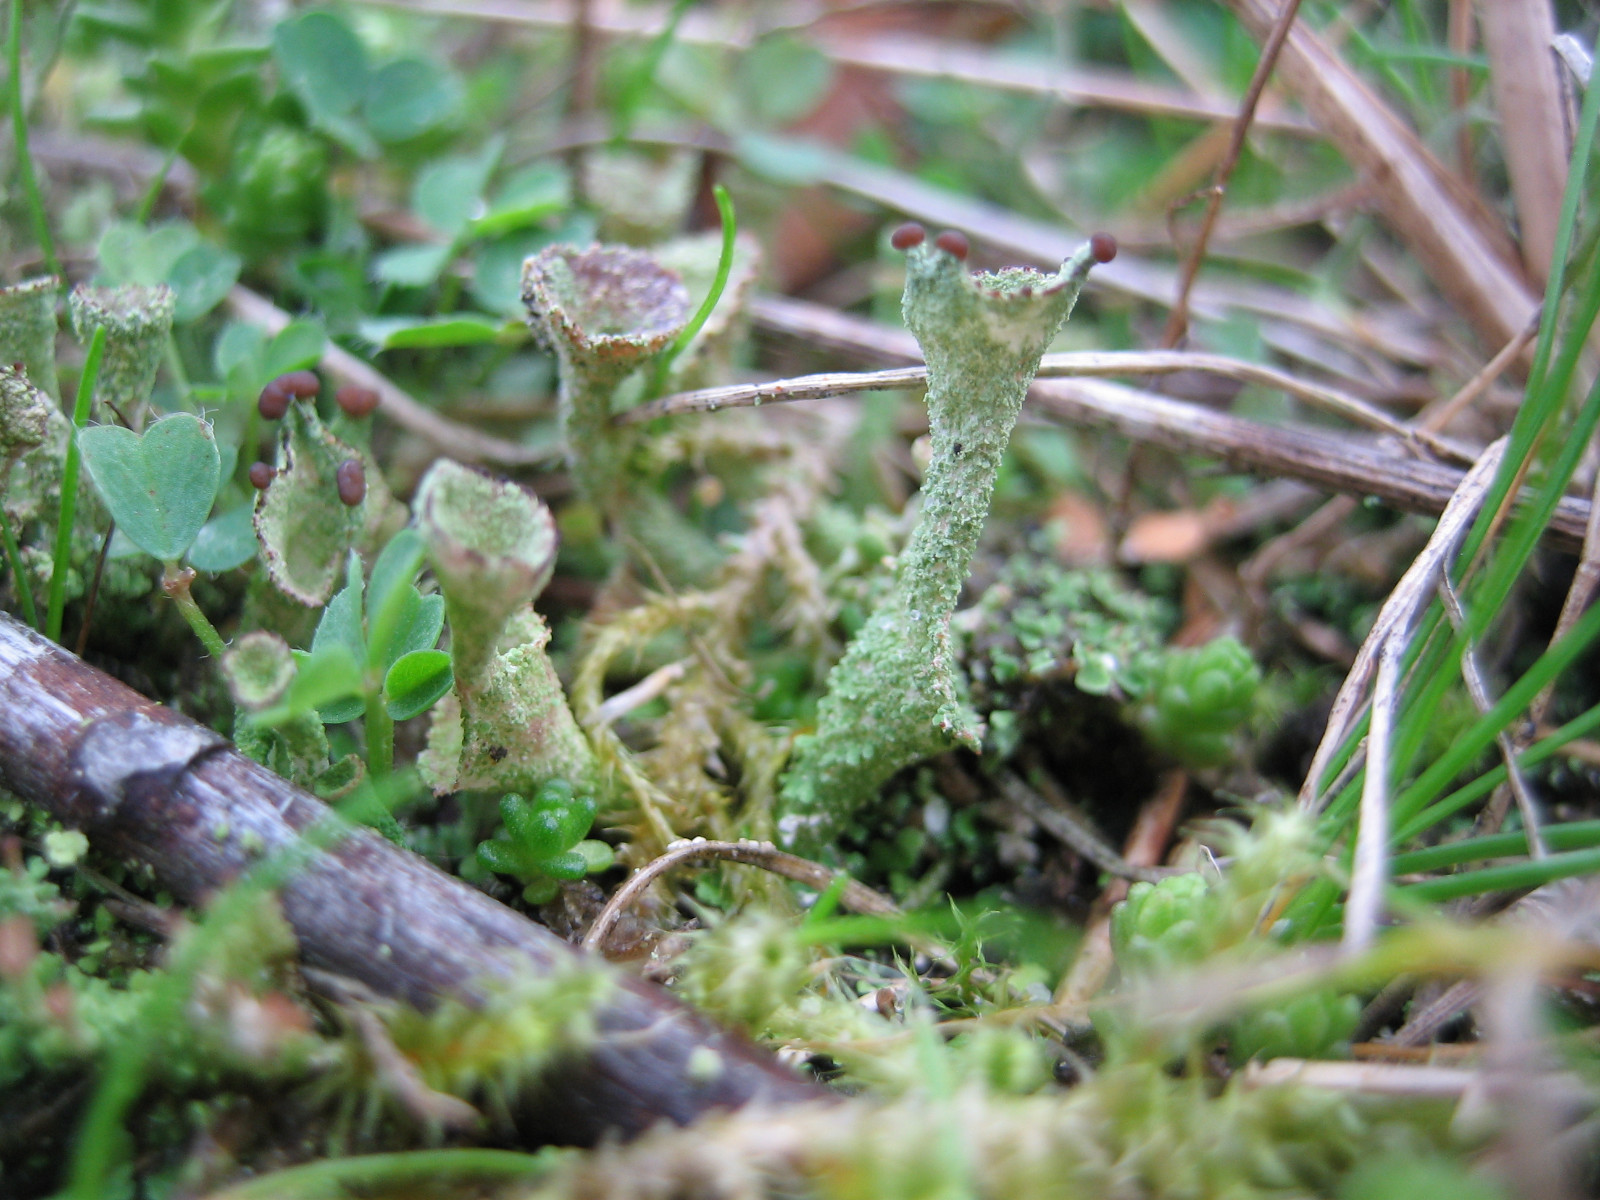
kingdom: Fungi
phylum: Ascomycota
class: Lecanoromycetes
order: Lecanorales
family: Cladoniaceae
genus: Cladonia
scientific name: Cladonia
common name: brungrøn bægerlav
